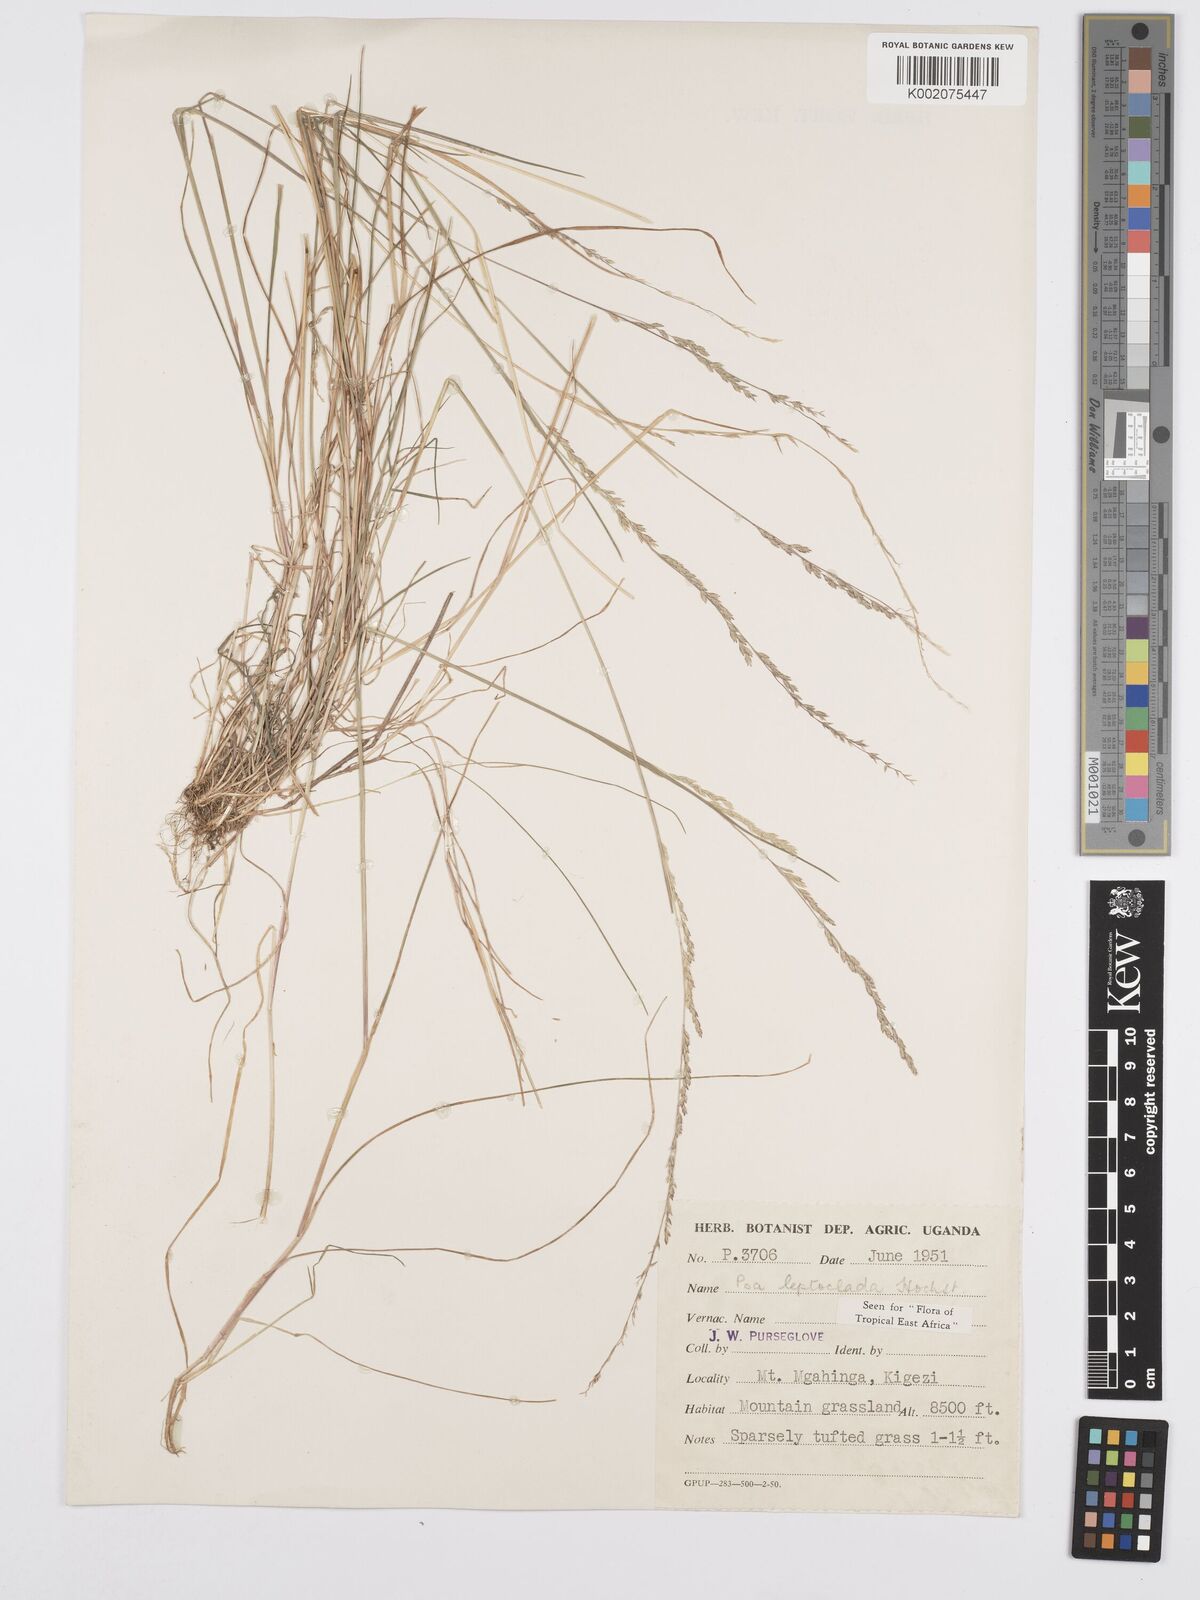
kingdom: Plantae
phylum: Tracheophyta
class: Liliopsida
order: Poales
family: Poaceae
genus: Poa
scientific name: Poa
